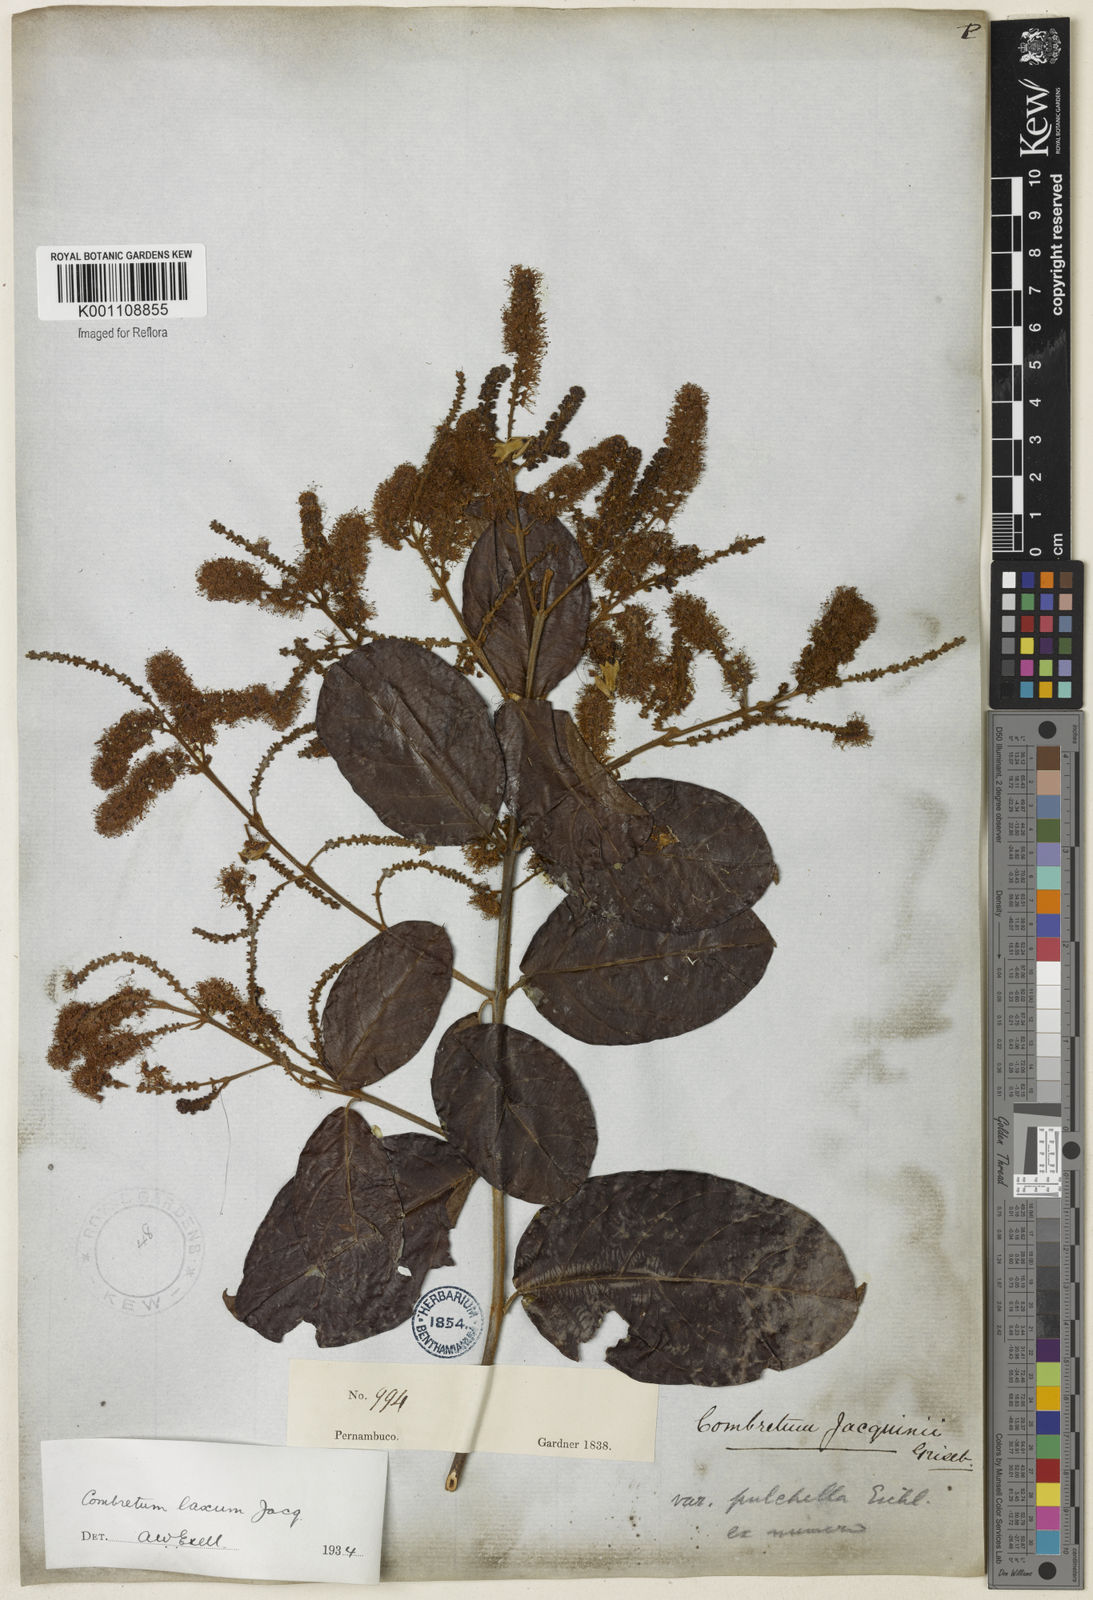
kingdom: Plantae
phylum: Tracheophyta
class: Magnoliopsida
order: Myrtales
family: Combretaceae
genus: Combretum
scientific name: Combretum laxum
